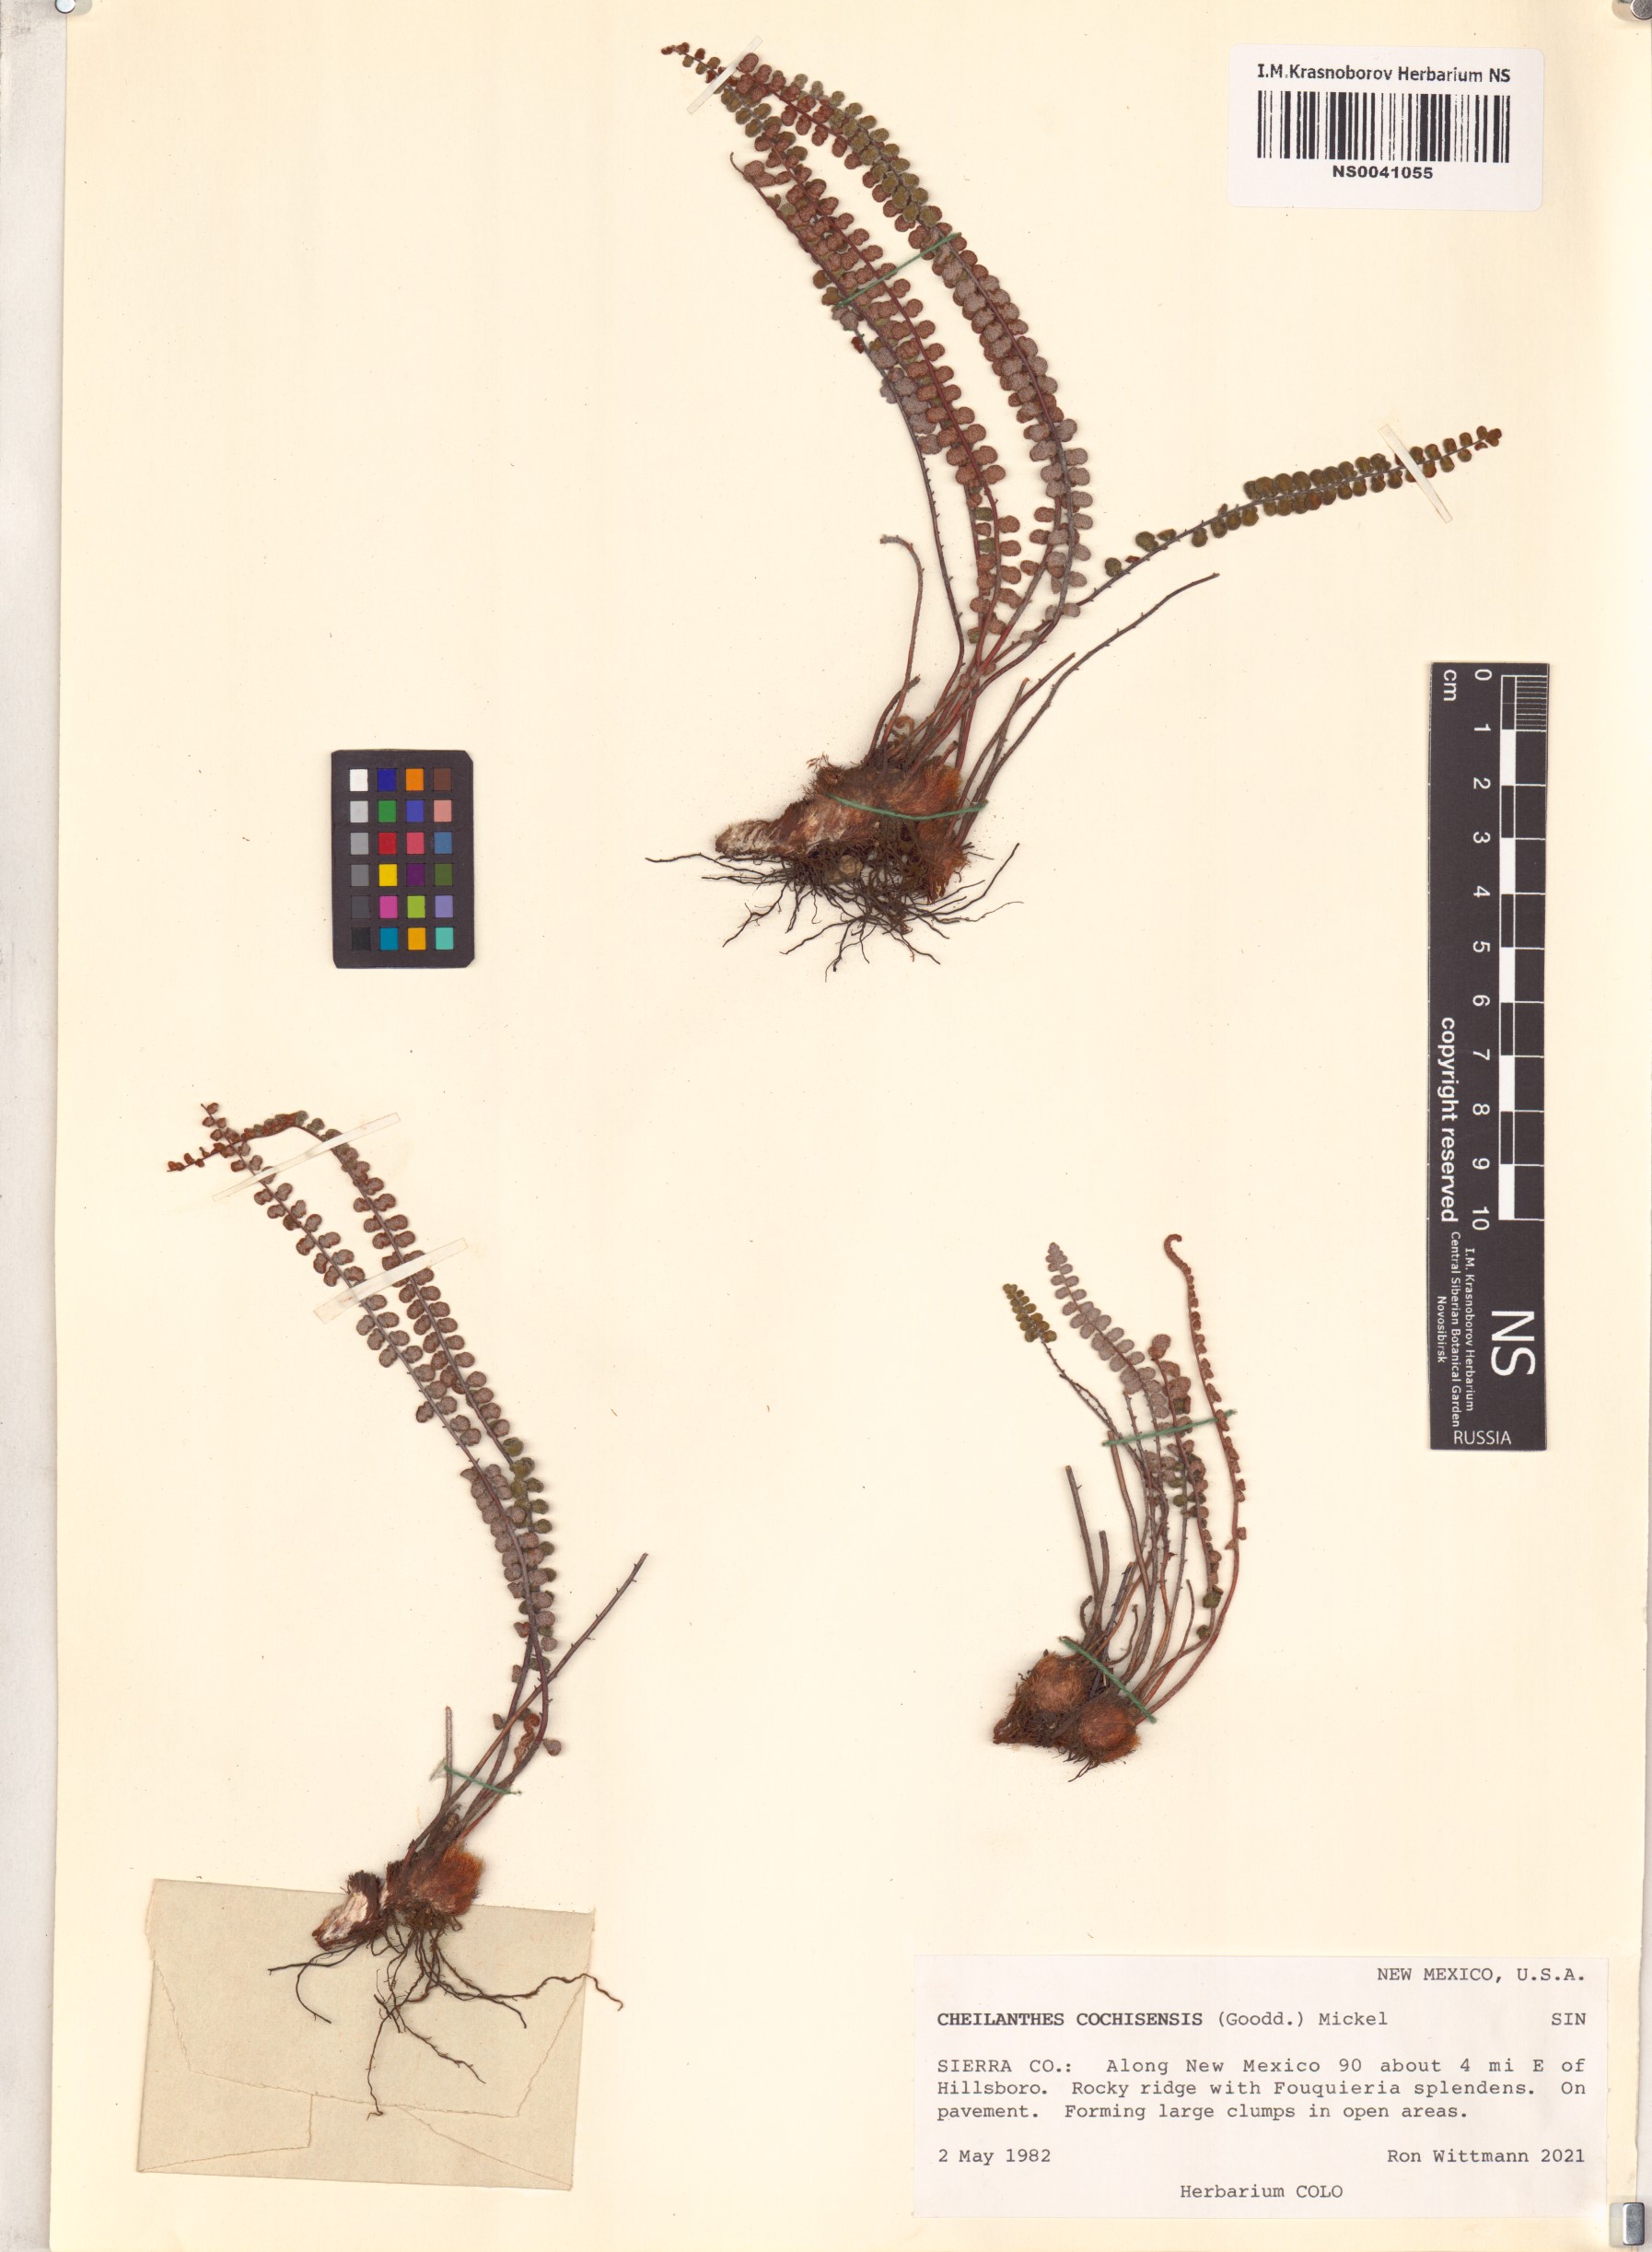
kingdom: Plantae
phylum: Tracheophyta
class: Polypodiopsida
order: Polypodiales
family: Pteridaceae
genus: Astrolepis
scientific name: Astrolepis cochisensis
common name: Scaly cloak fern
